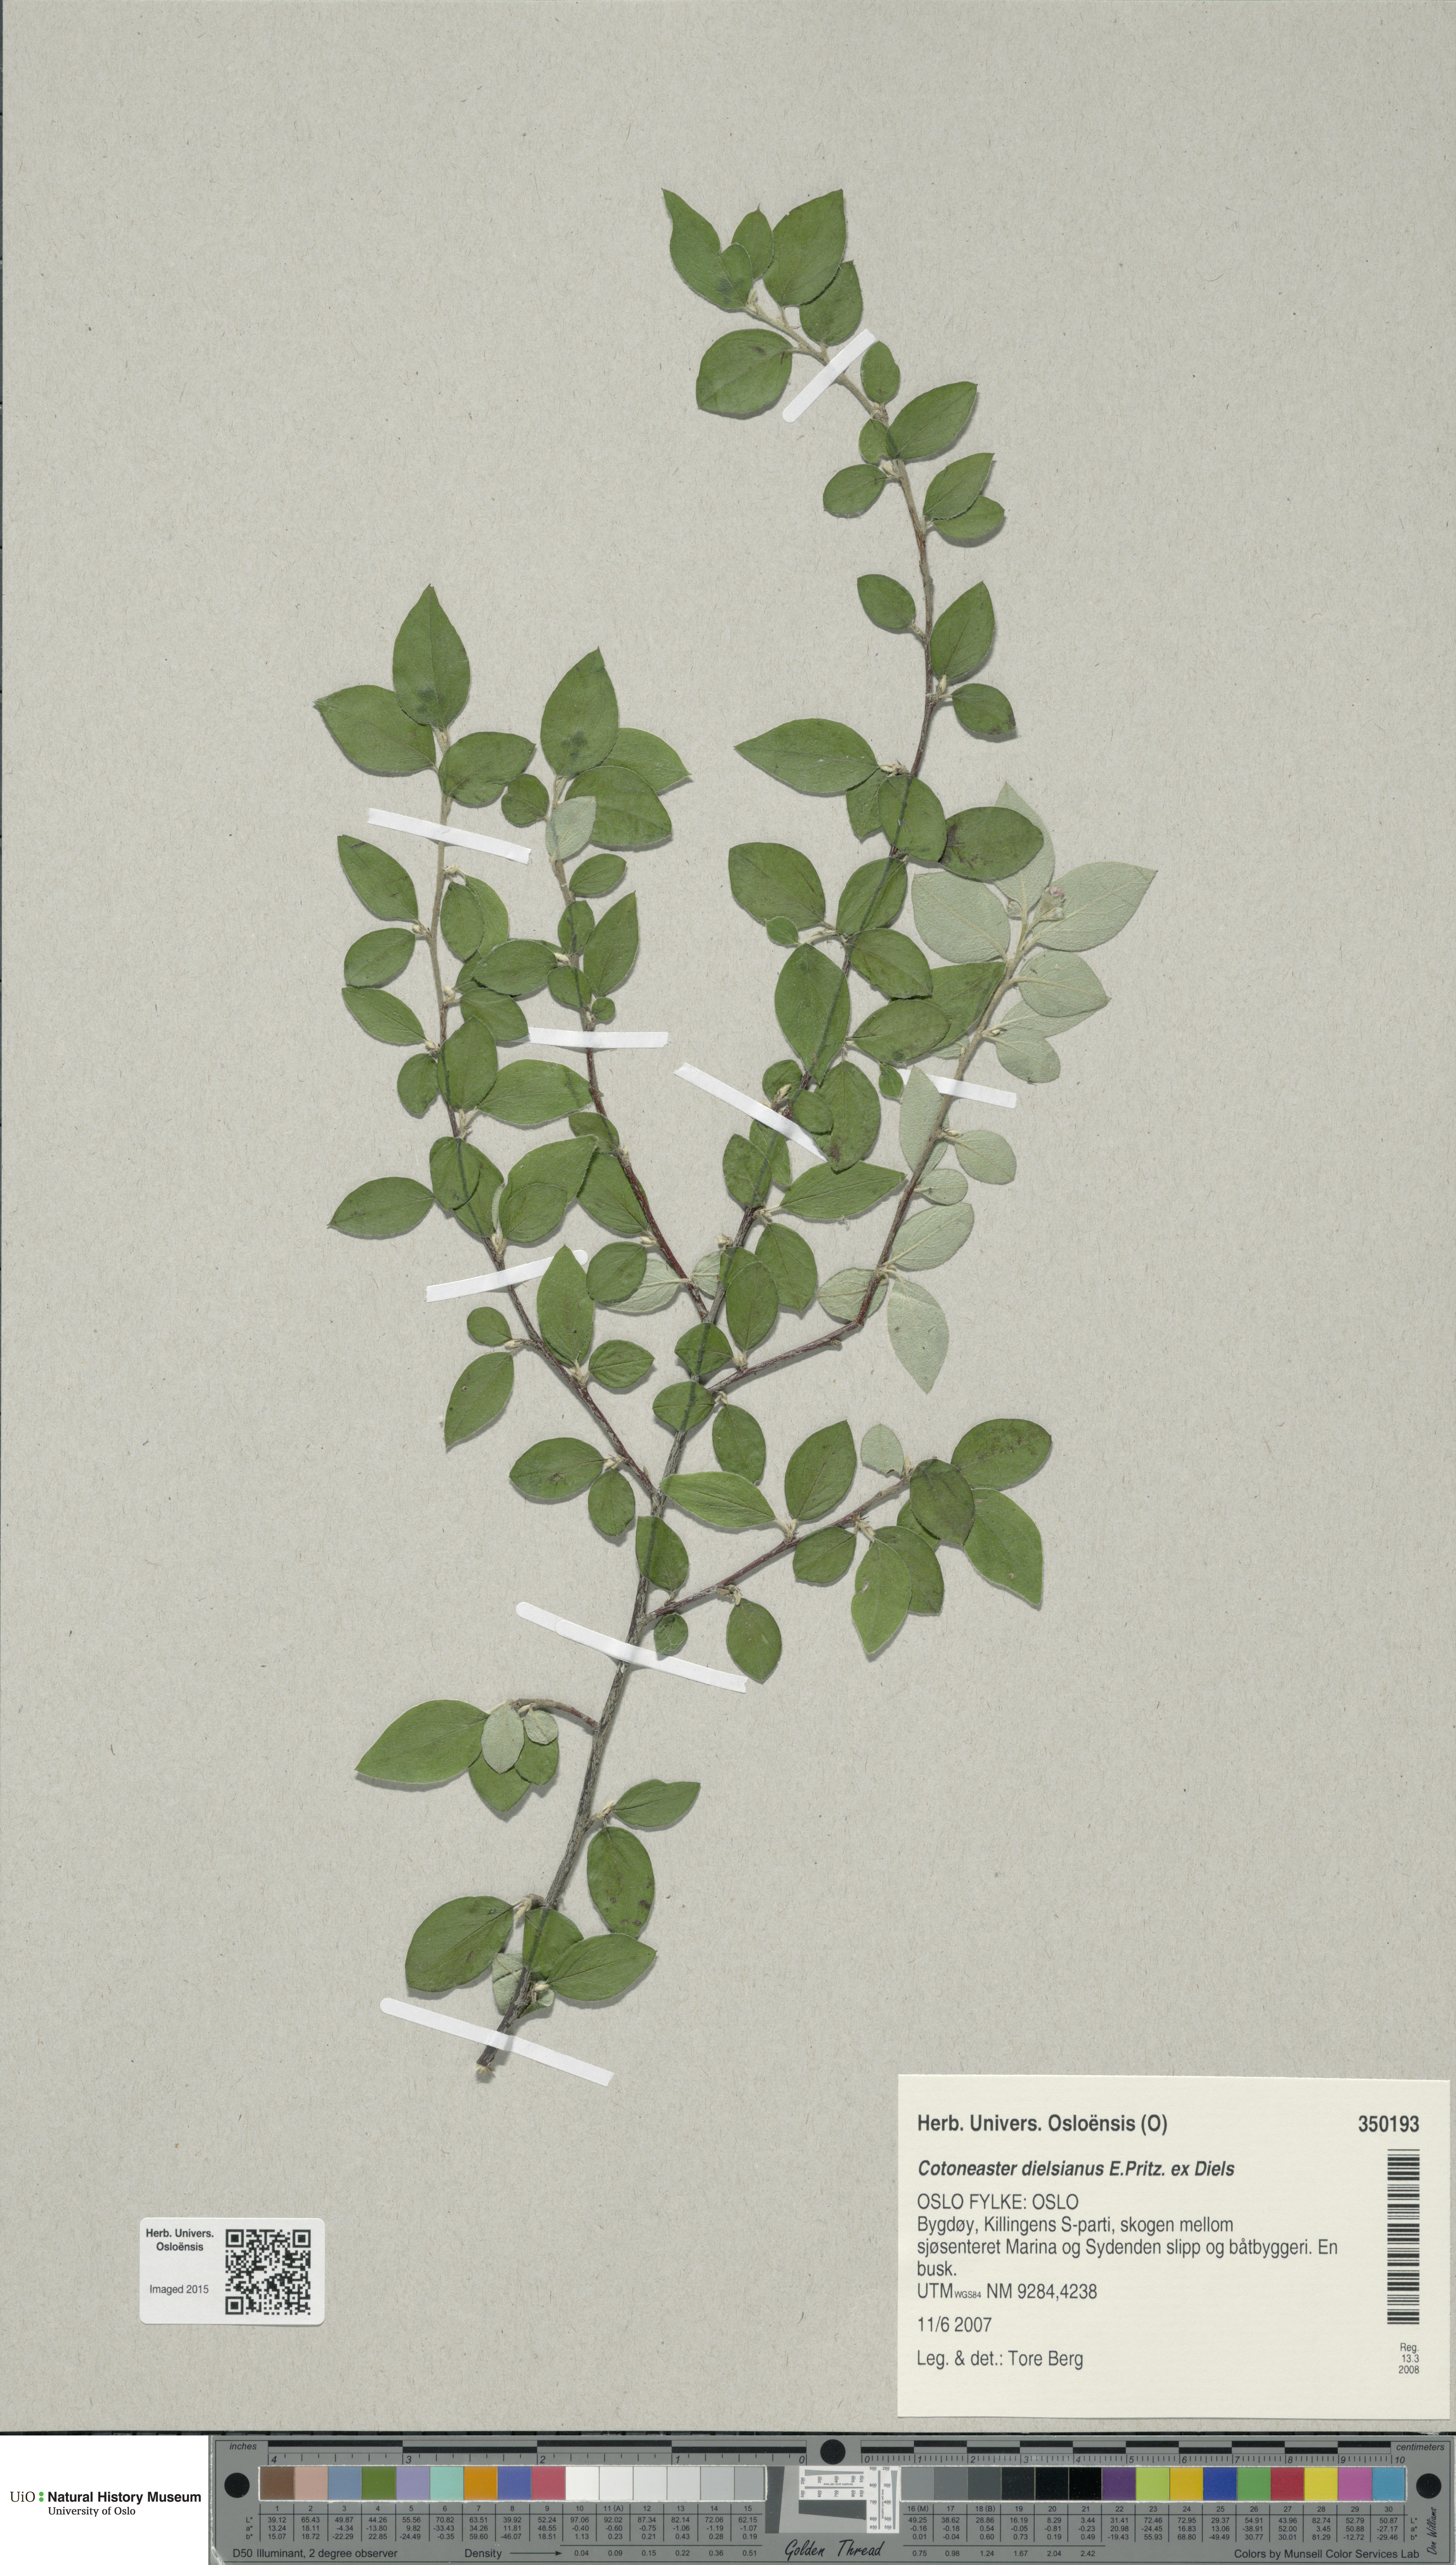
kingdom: Plantae
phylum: Tracheophyta
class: Magnoliopsida
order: Rosales
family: Rosaceae
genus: Cotoneaster
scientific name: Cotoneaster dielsianus
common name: Diels's cotoneaster
